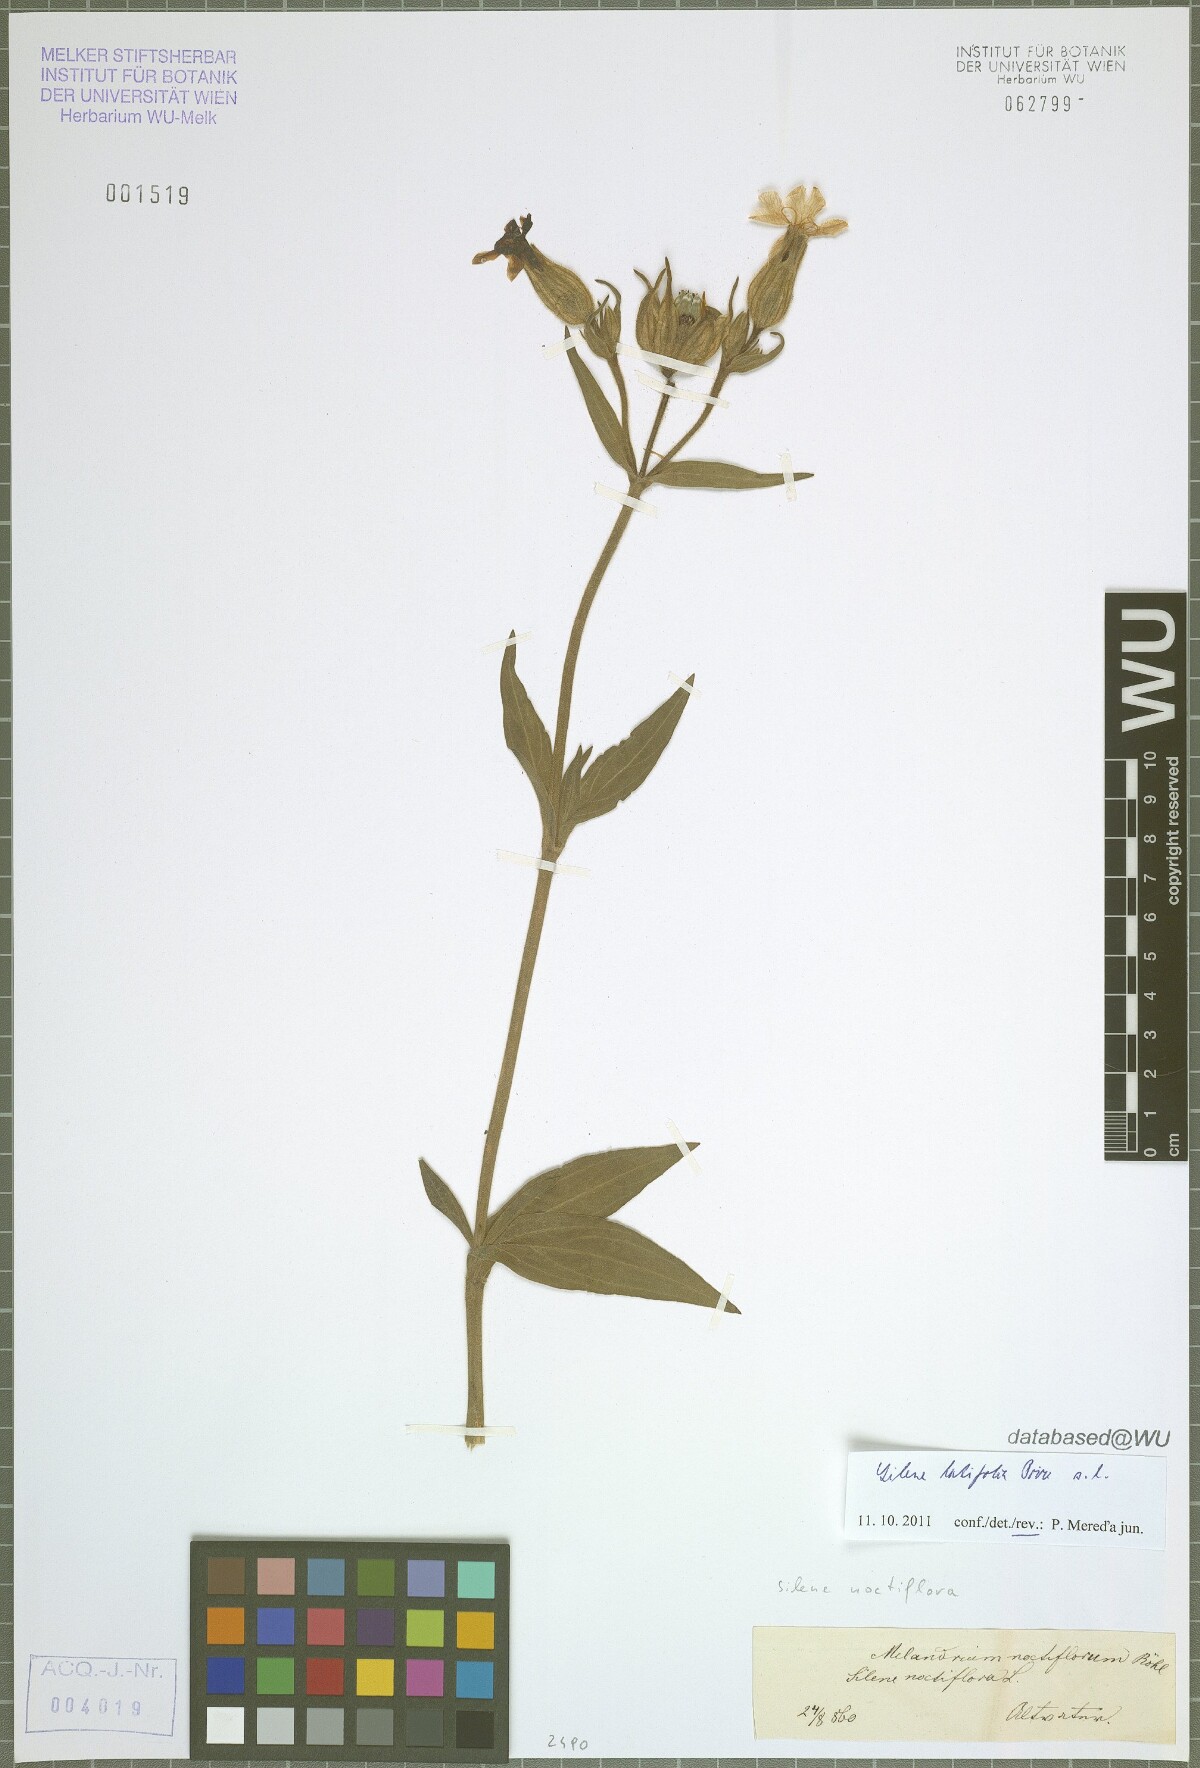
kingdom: Plantae
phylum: Tracheophyta
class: Magnoliopsida
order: Caryophyllales
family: Caryophyllaceae
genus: Silene
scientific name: Silene latifolia
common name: White campion
